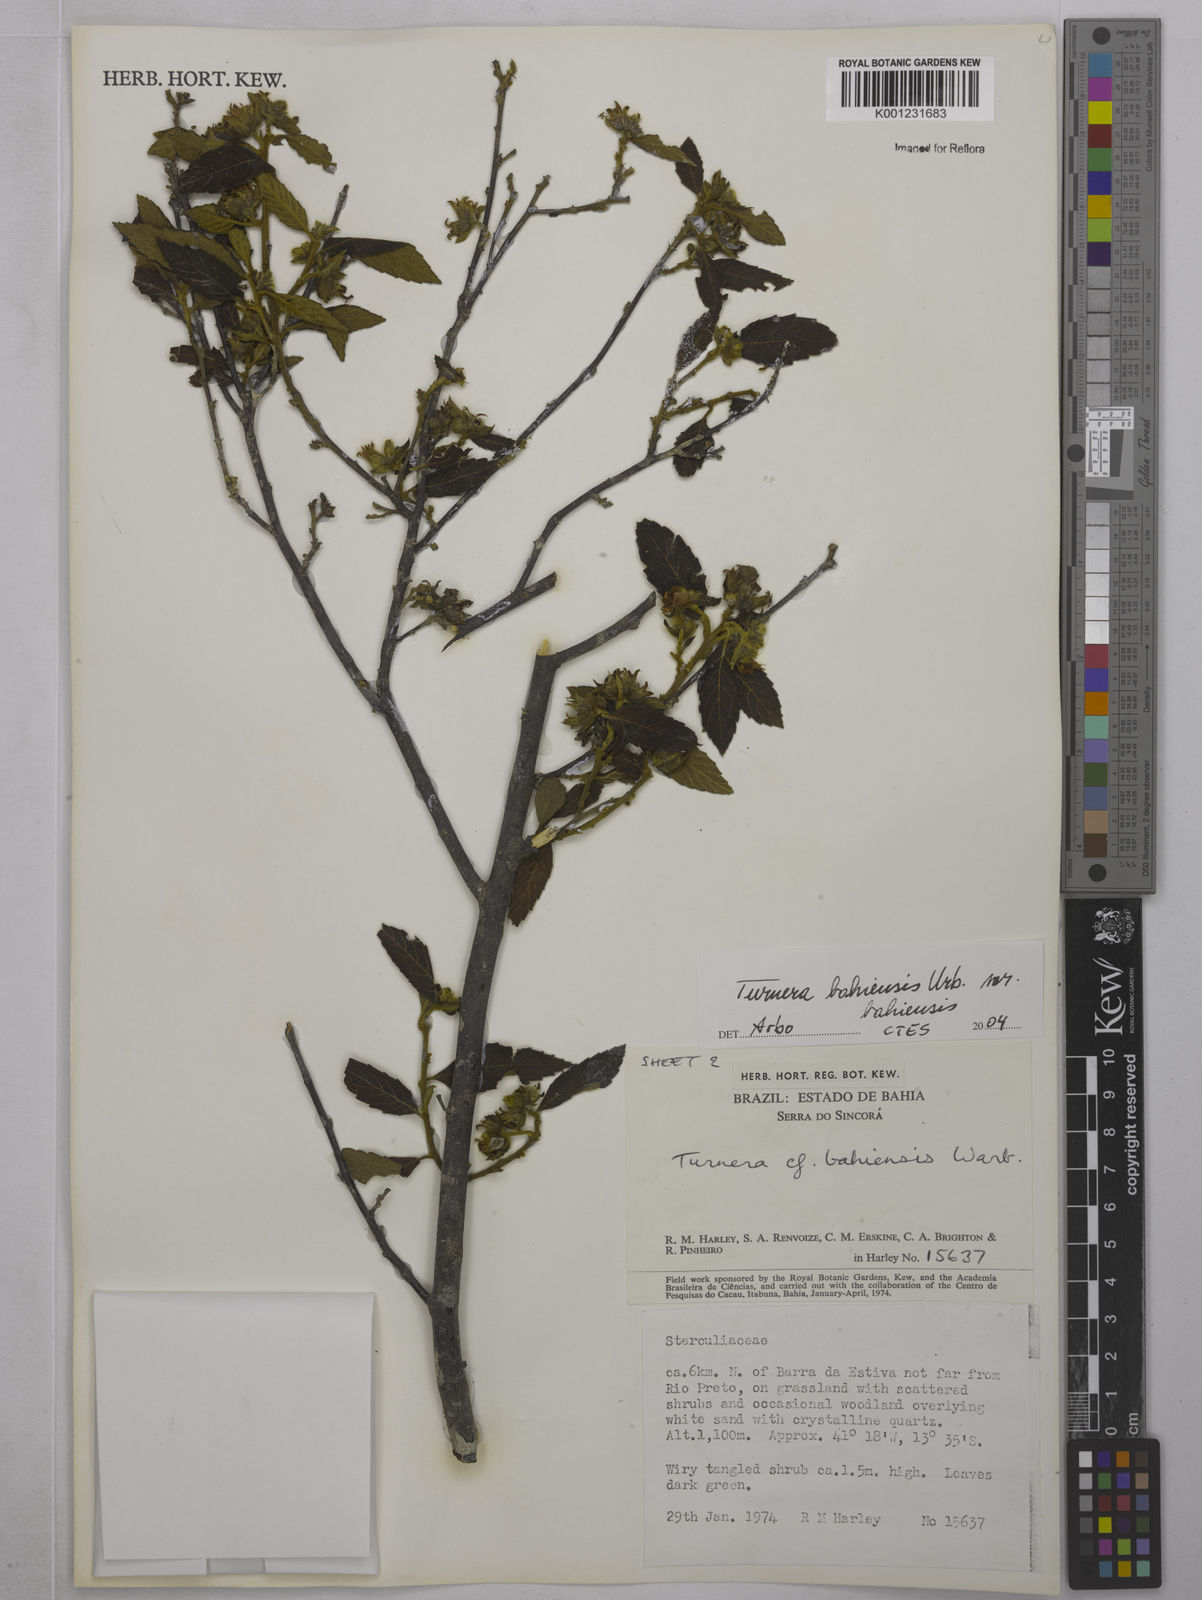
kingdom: Plantae
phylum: Tracheophyta
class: Magnoliopsida
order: Malpighiales
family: Turneraceae
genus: Turnera
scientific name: Turnera bahiensis
